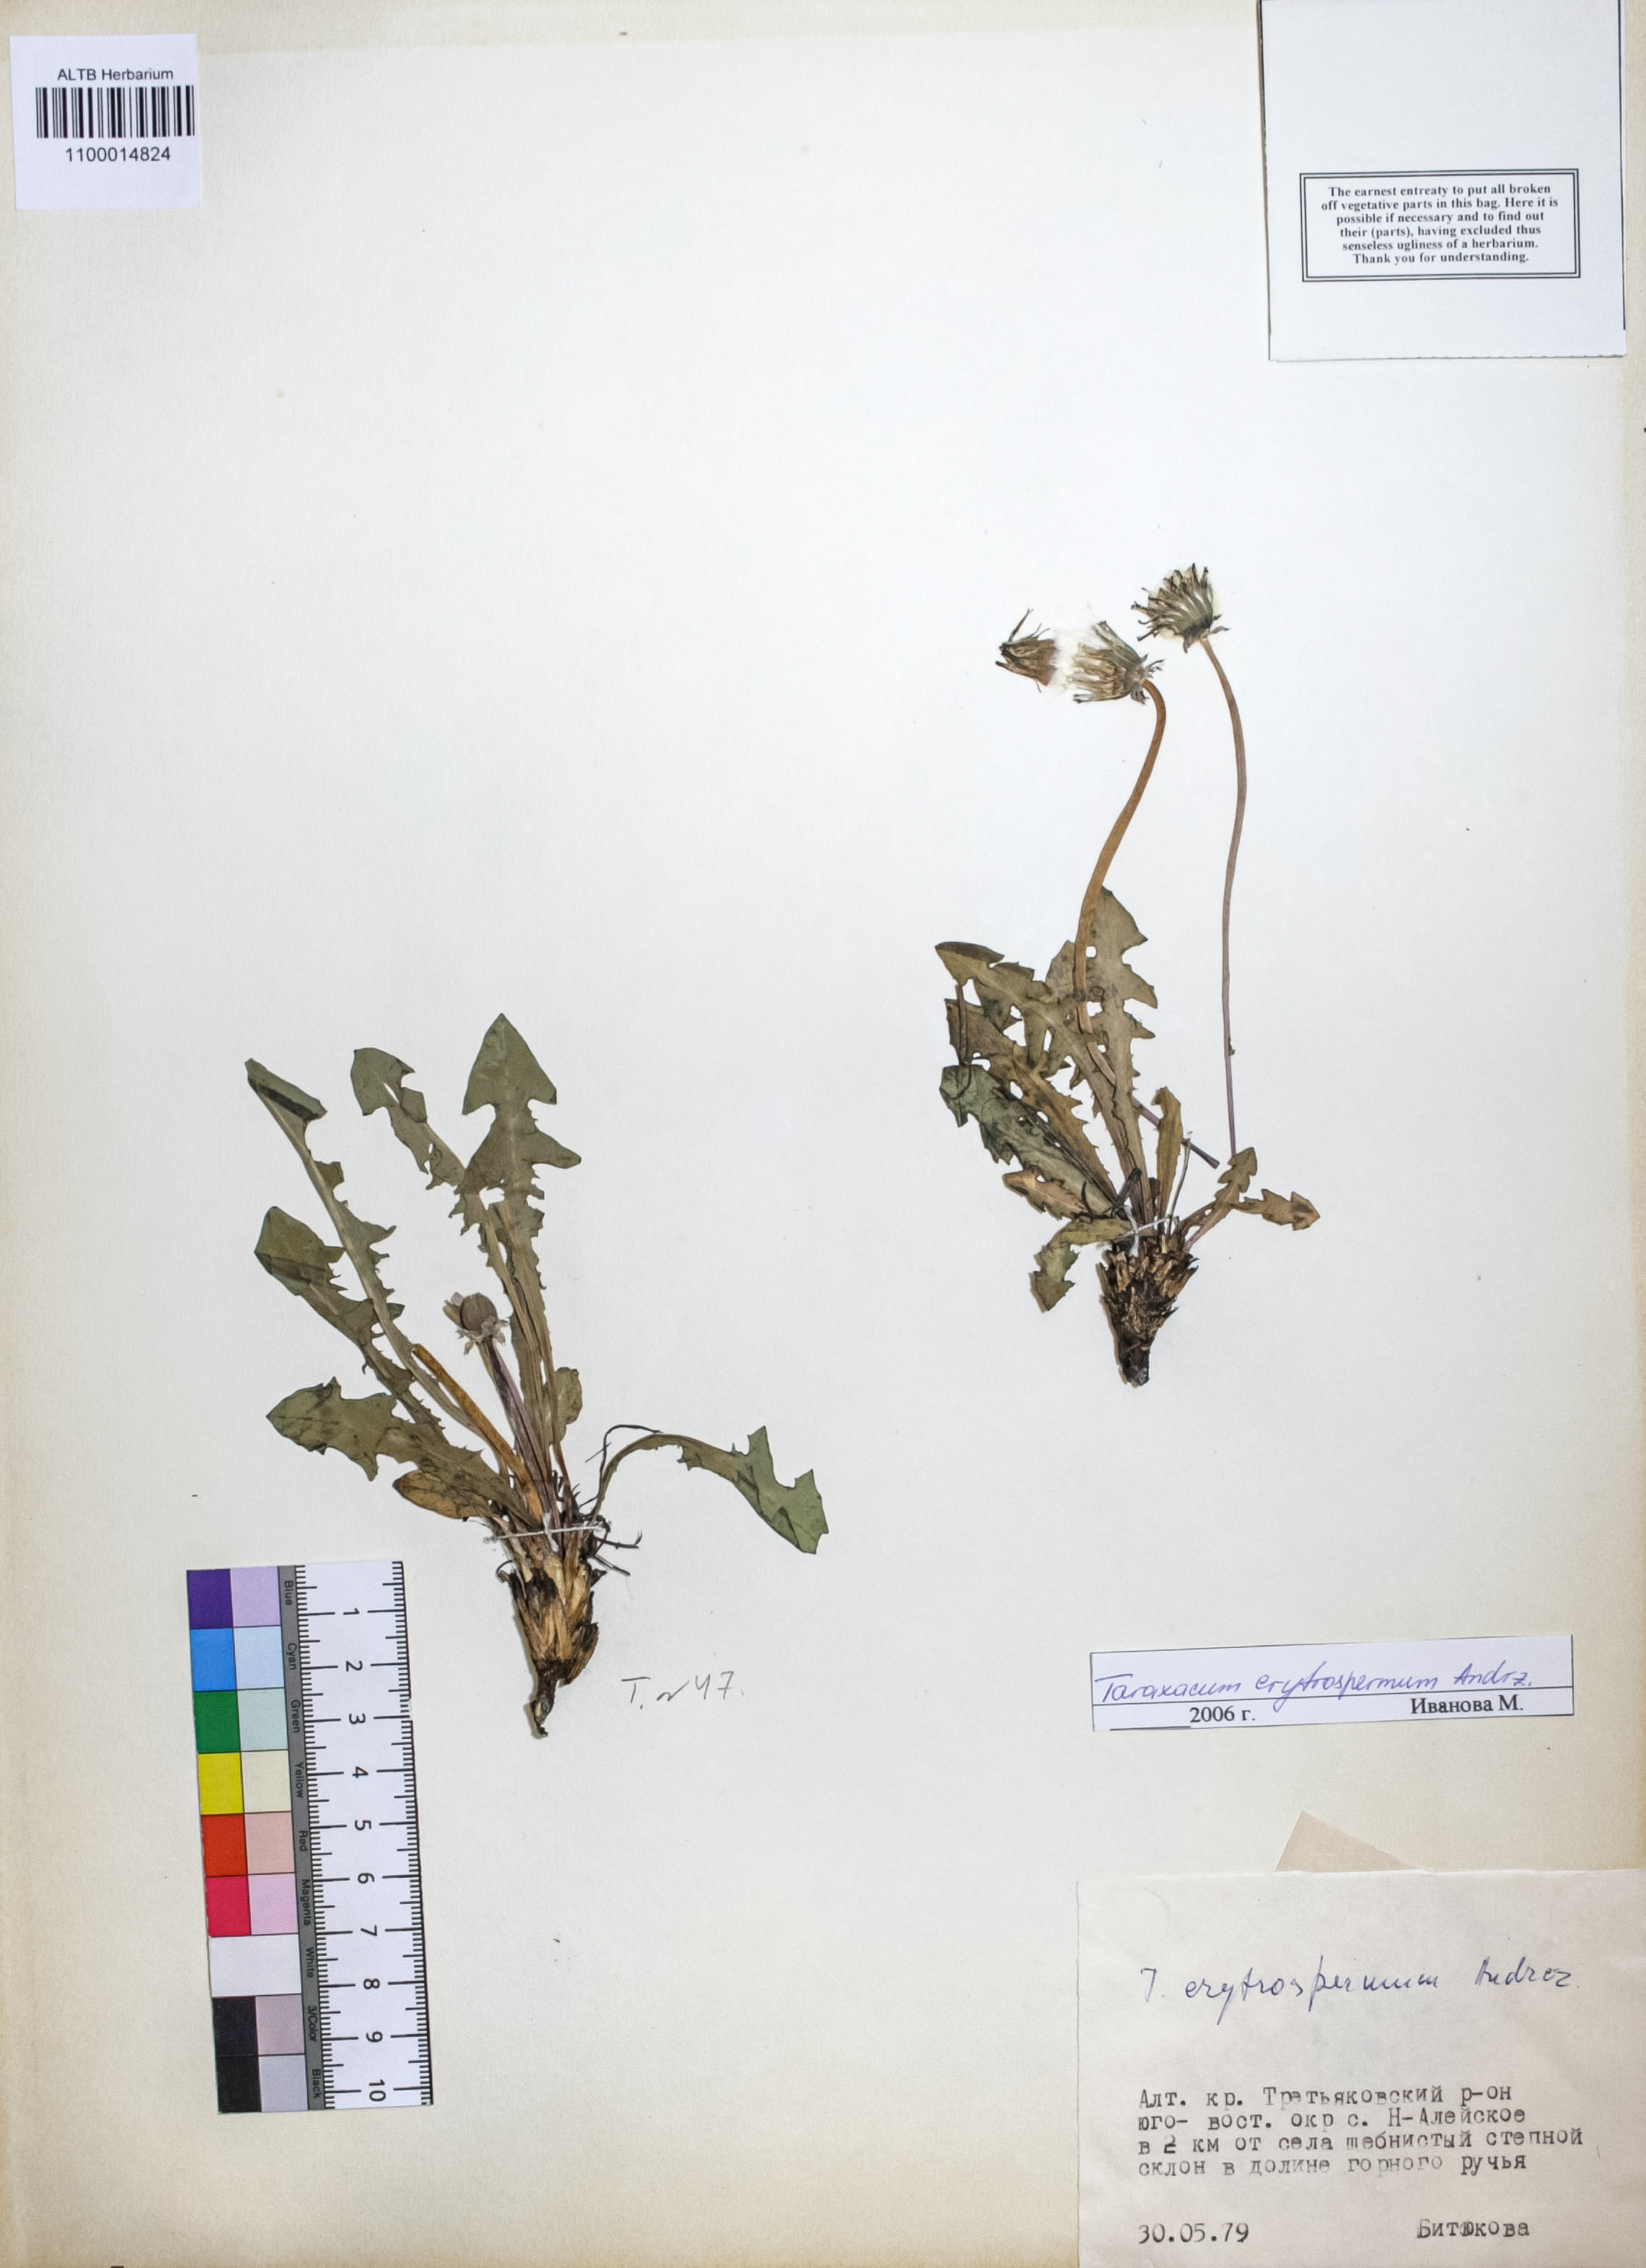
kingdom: Plantae
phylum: Tracheophyta
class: Magnoliopsida
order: Asterales
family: Asteraceae
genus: Taraxacum
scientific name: Taraxacum erythrospermum
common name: Rock dandelion
